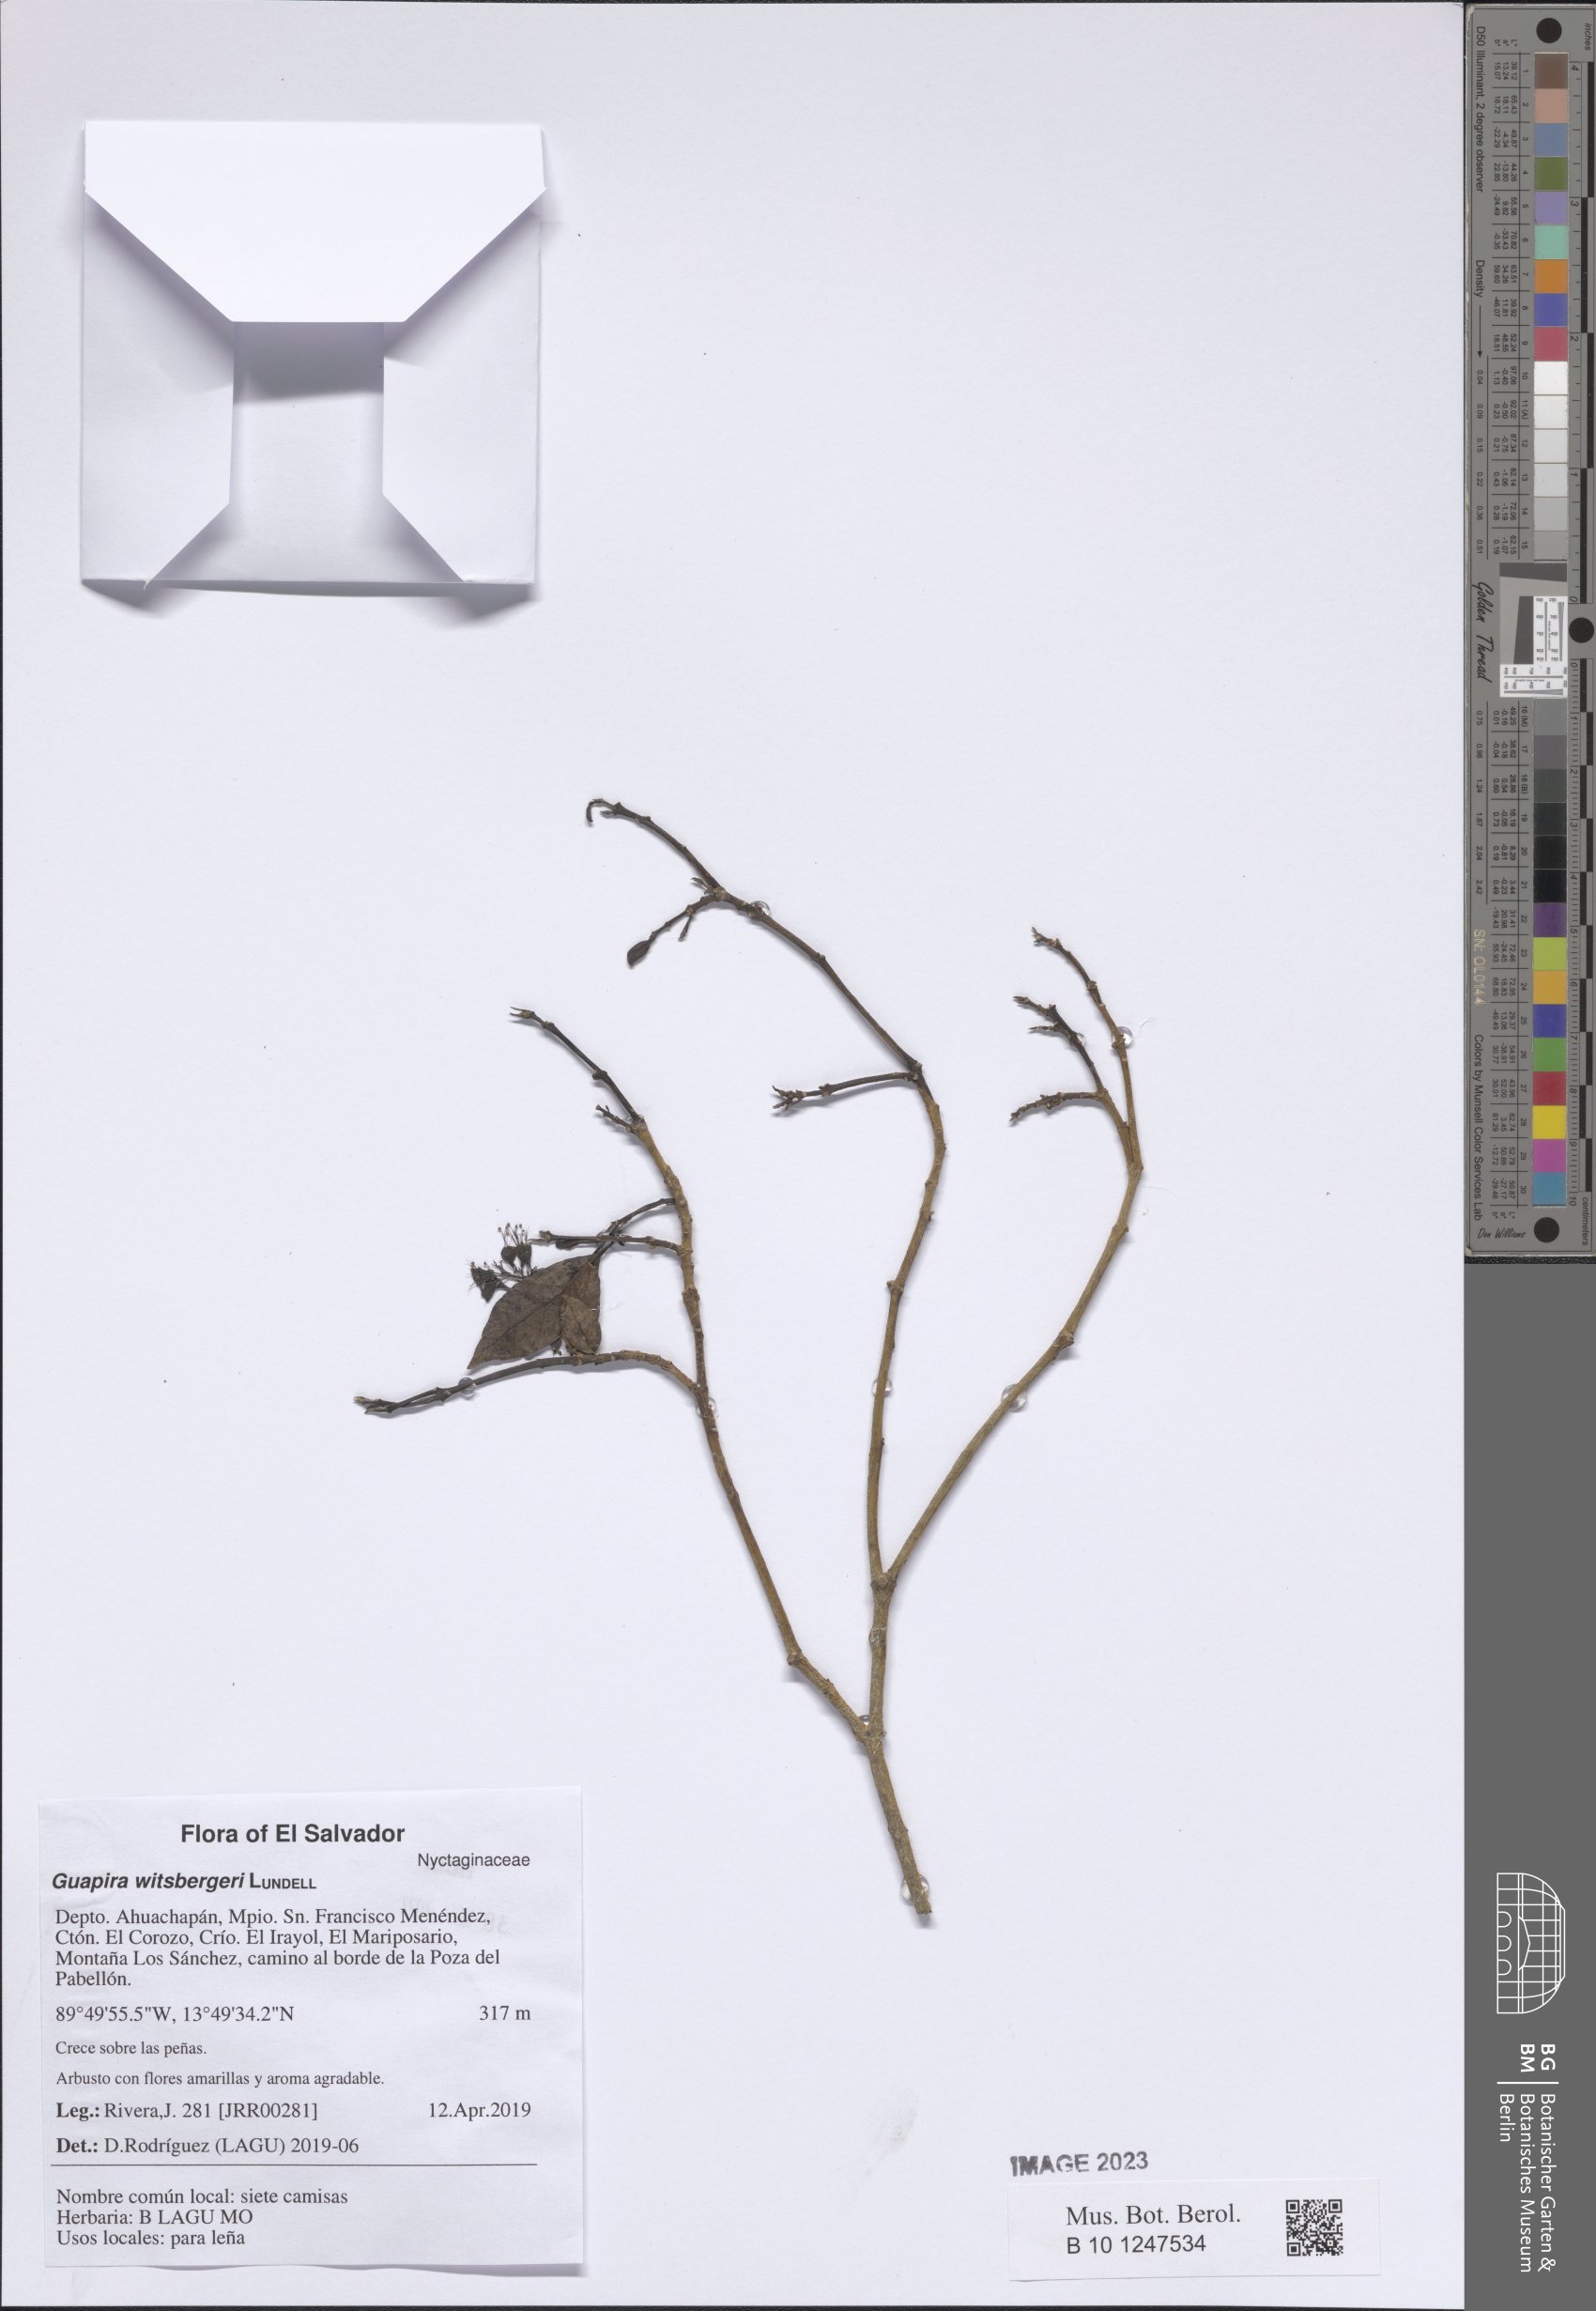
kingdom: Plantae
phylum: Tracheophyta
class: Magnoliopsida
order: Caryophyllales
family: Nyctaginaceae
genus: Guapira
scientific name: Guapira witsbergeri
